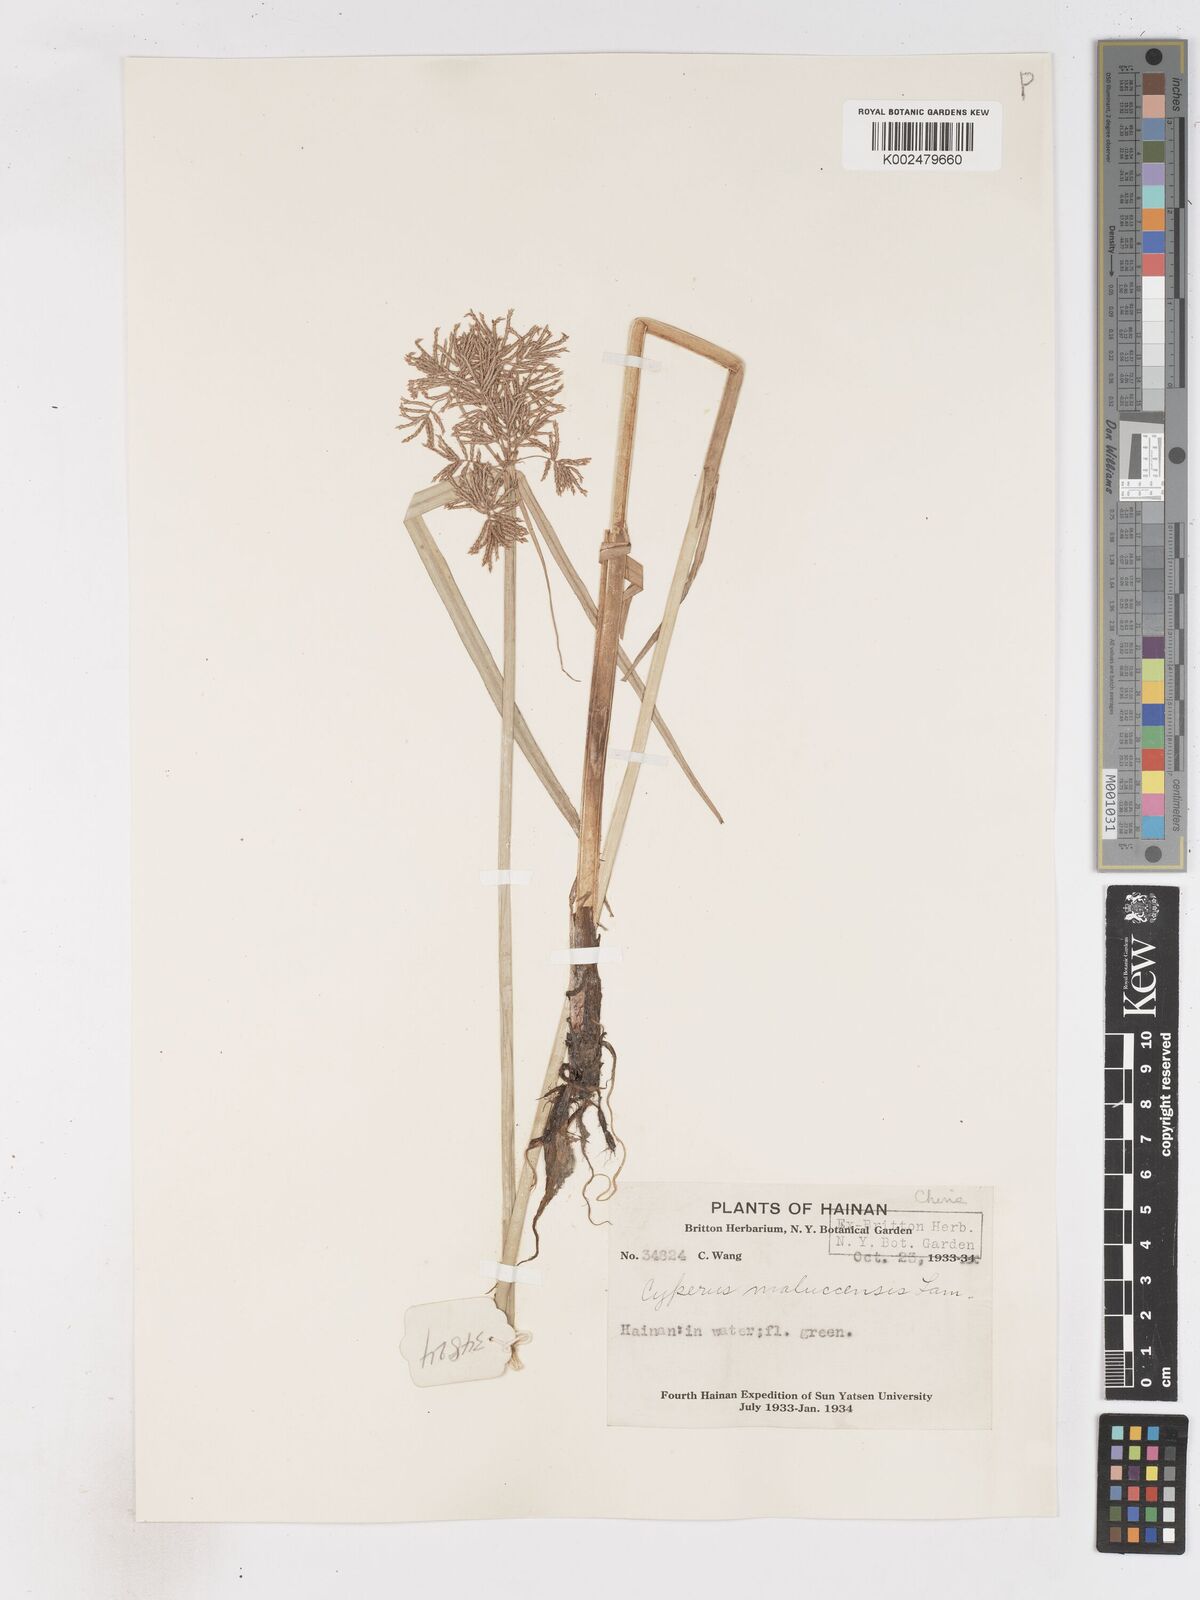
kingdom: Plantae
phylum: Tracheophyta
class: Liliopsida
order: Poales
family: Cyperaceae
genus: Cyperus
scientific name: Cyperus malaccensis
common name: Shichito matgrass
